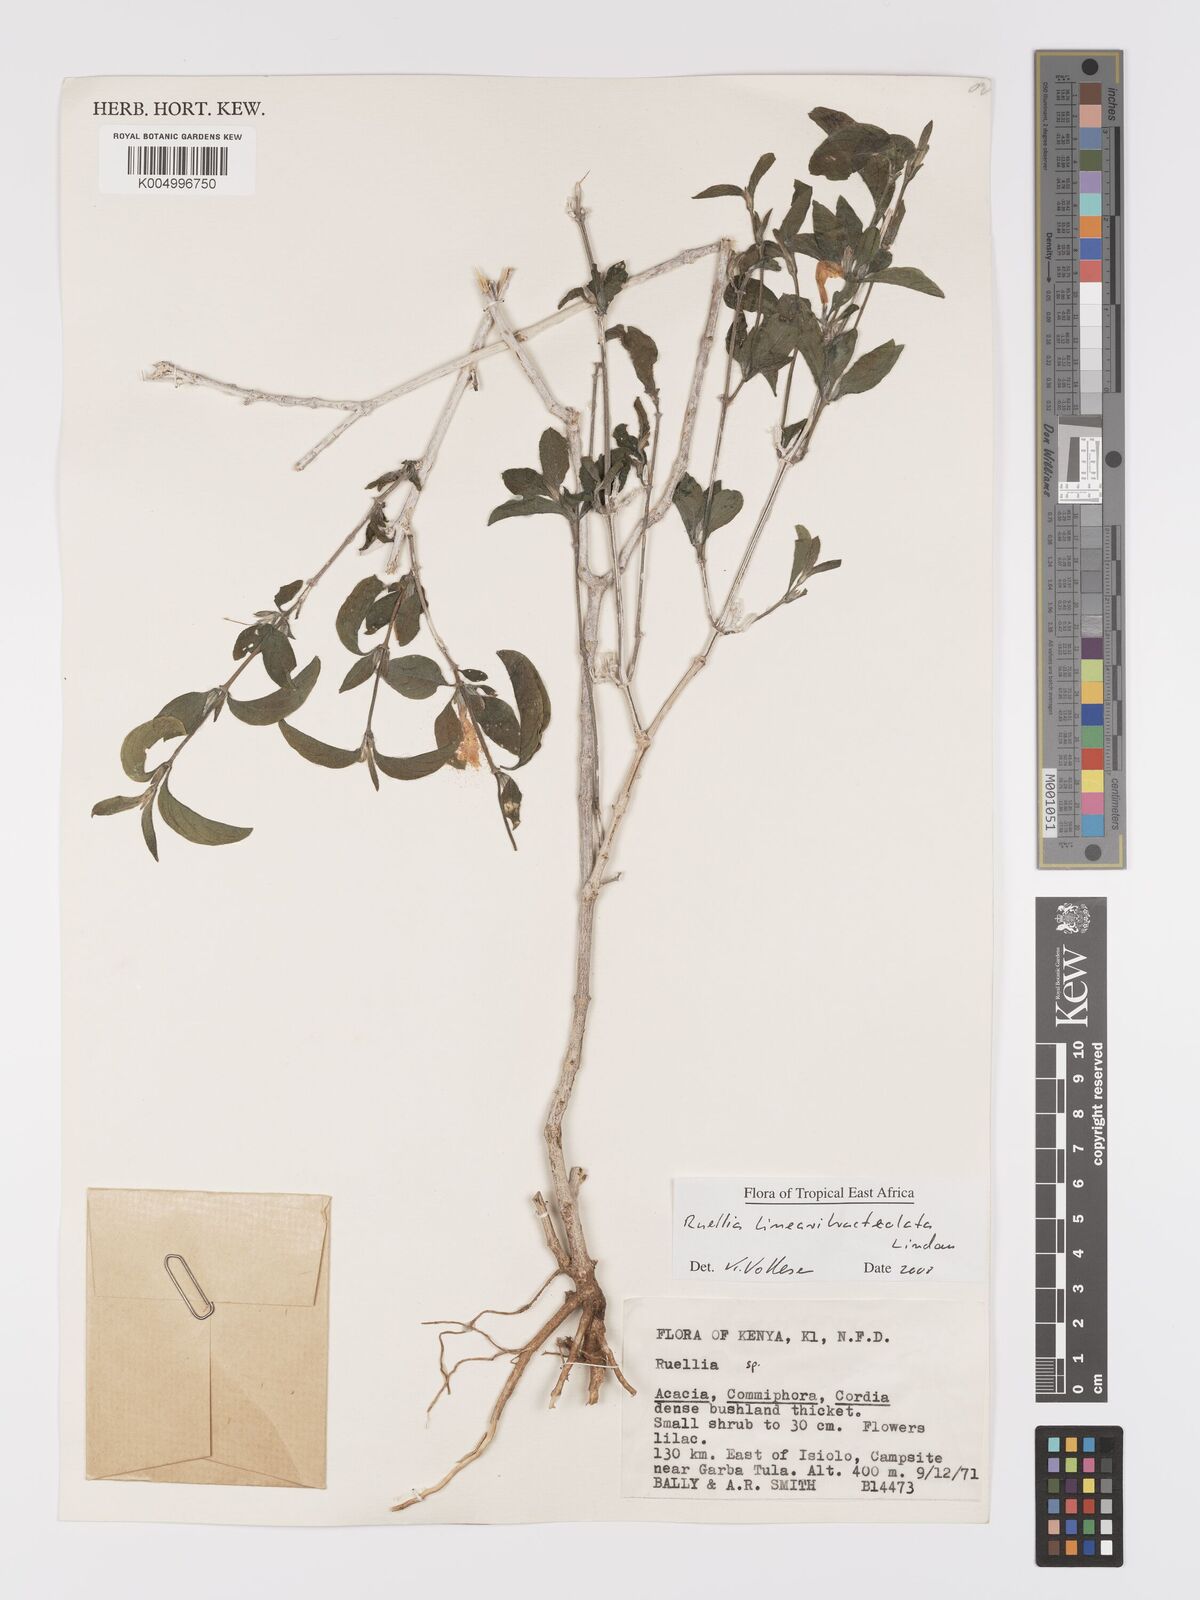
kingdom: Plantae
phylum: Tracheophyta
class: Magnoliopsida
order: Lamiales
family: Acanthaceae
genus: Ruellia
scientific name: Ruellia linearibracteolata
